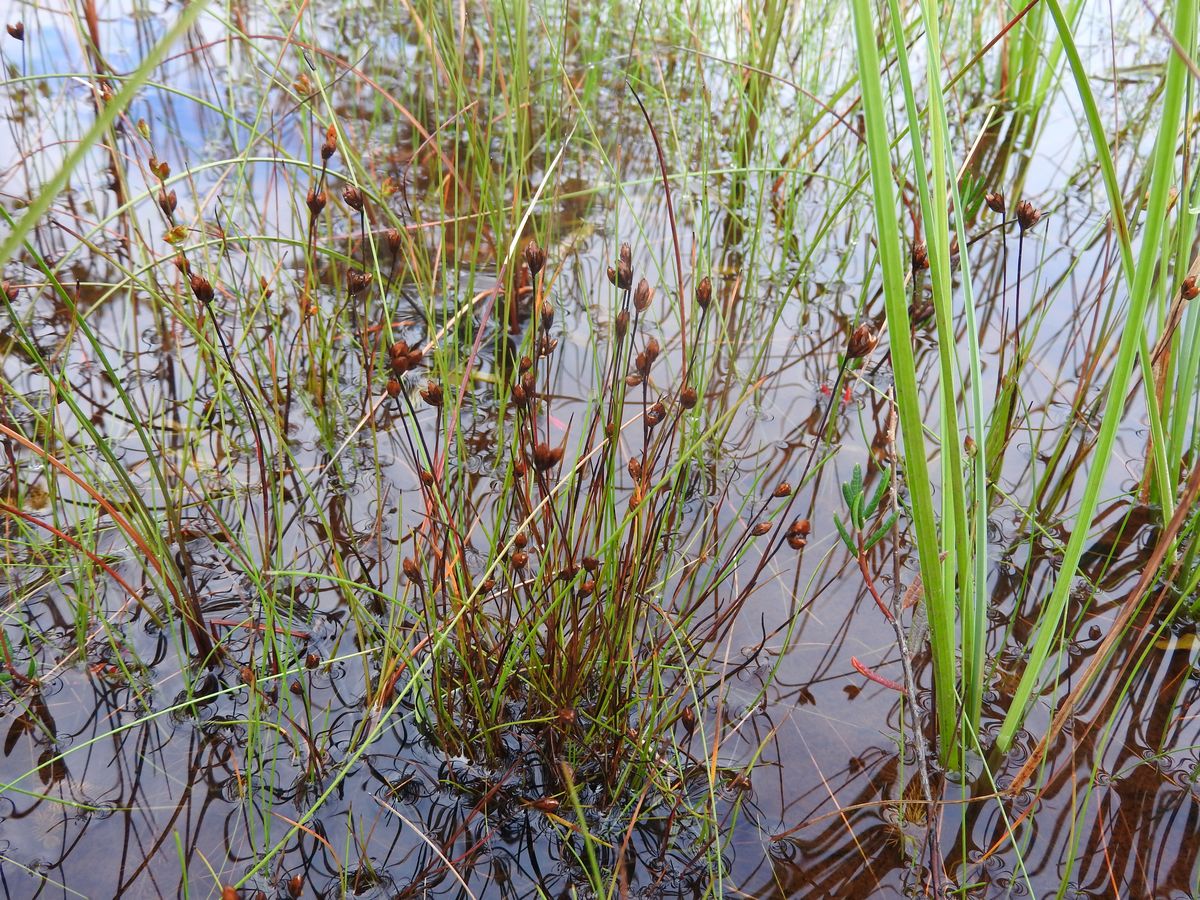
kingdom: Plantae
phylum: Tracheophyta
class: Liliopsida
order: Poales
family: Juncaceae
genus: Juncus
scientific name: Juncus stygius
